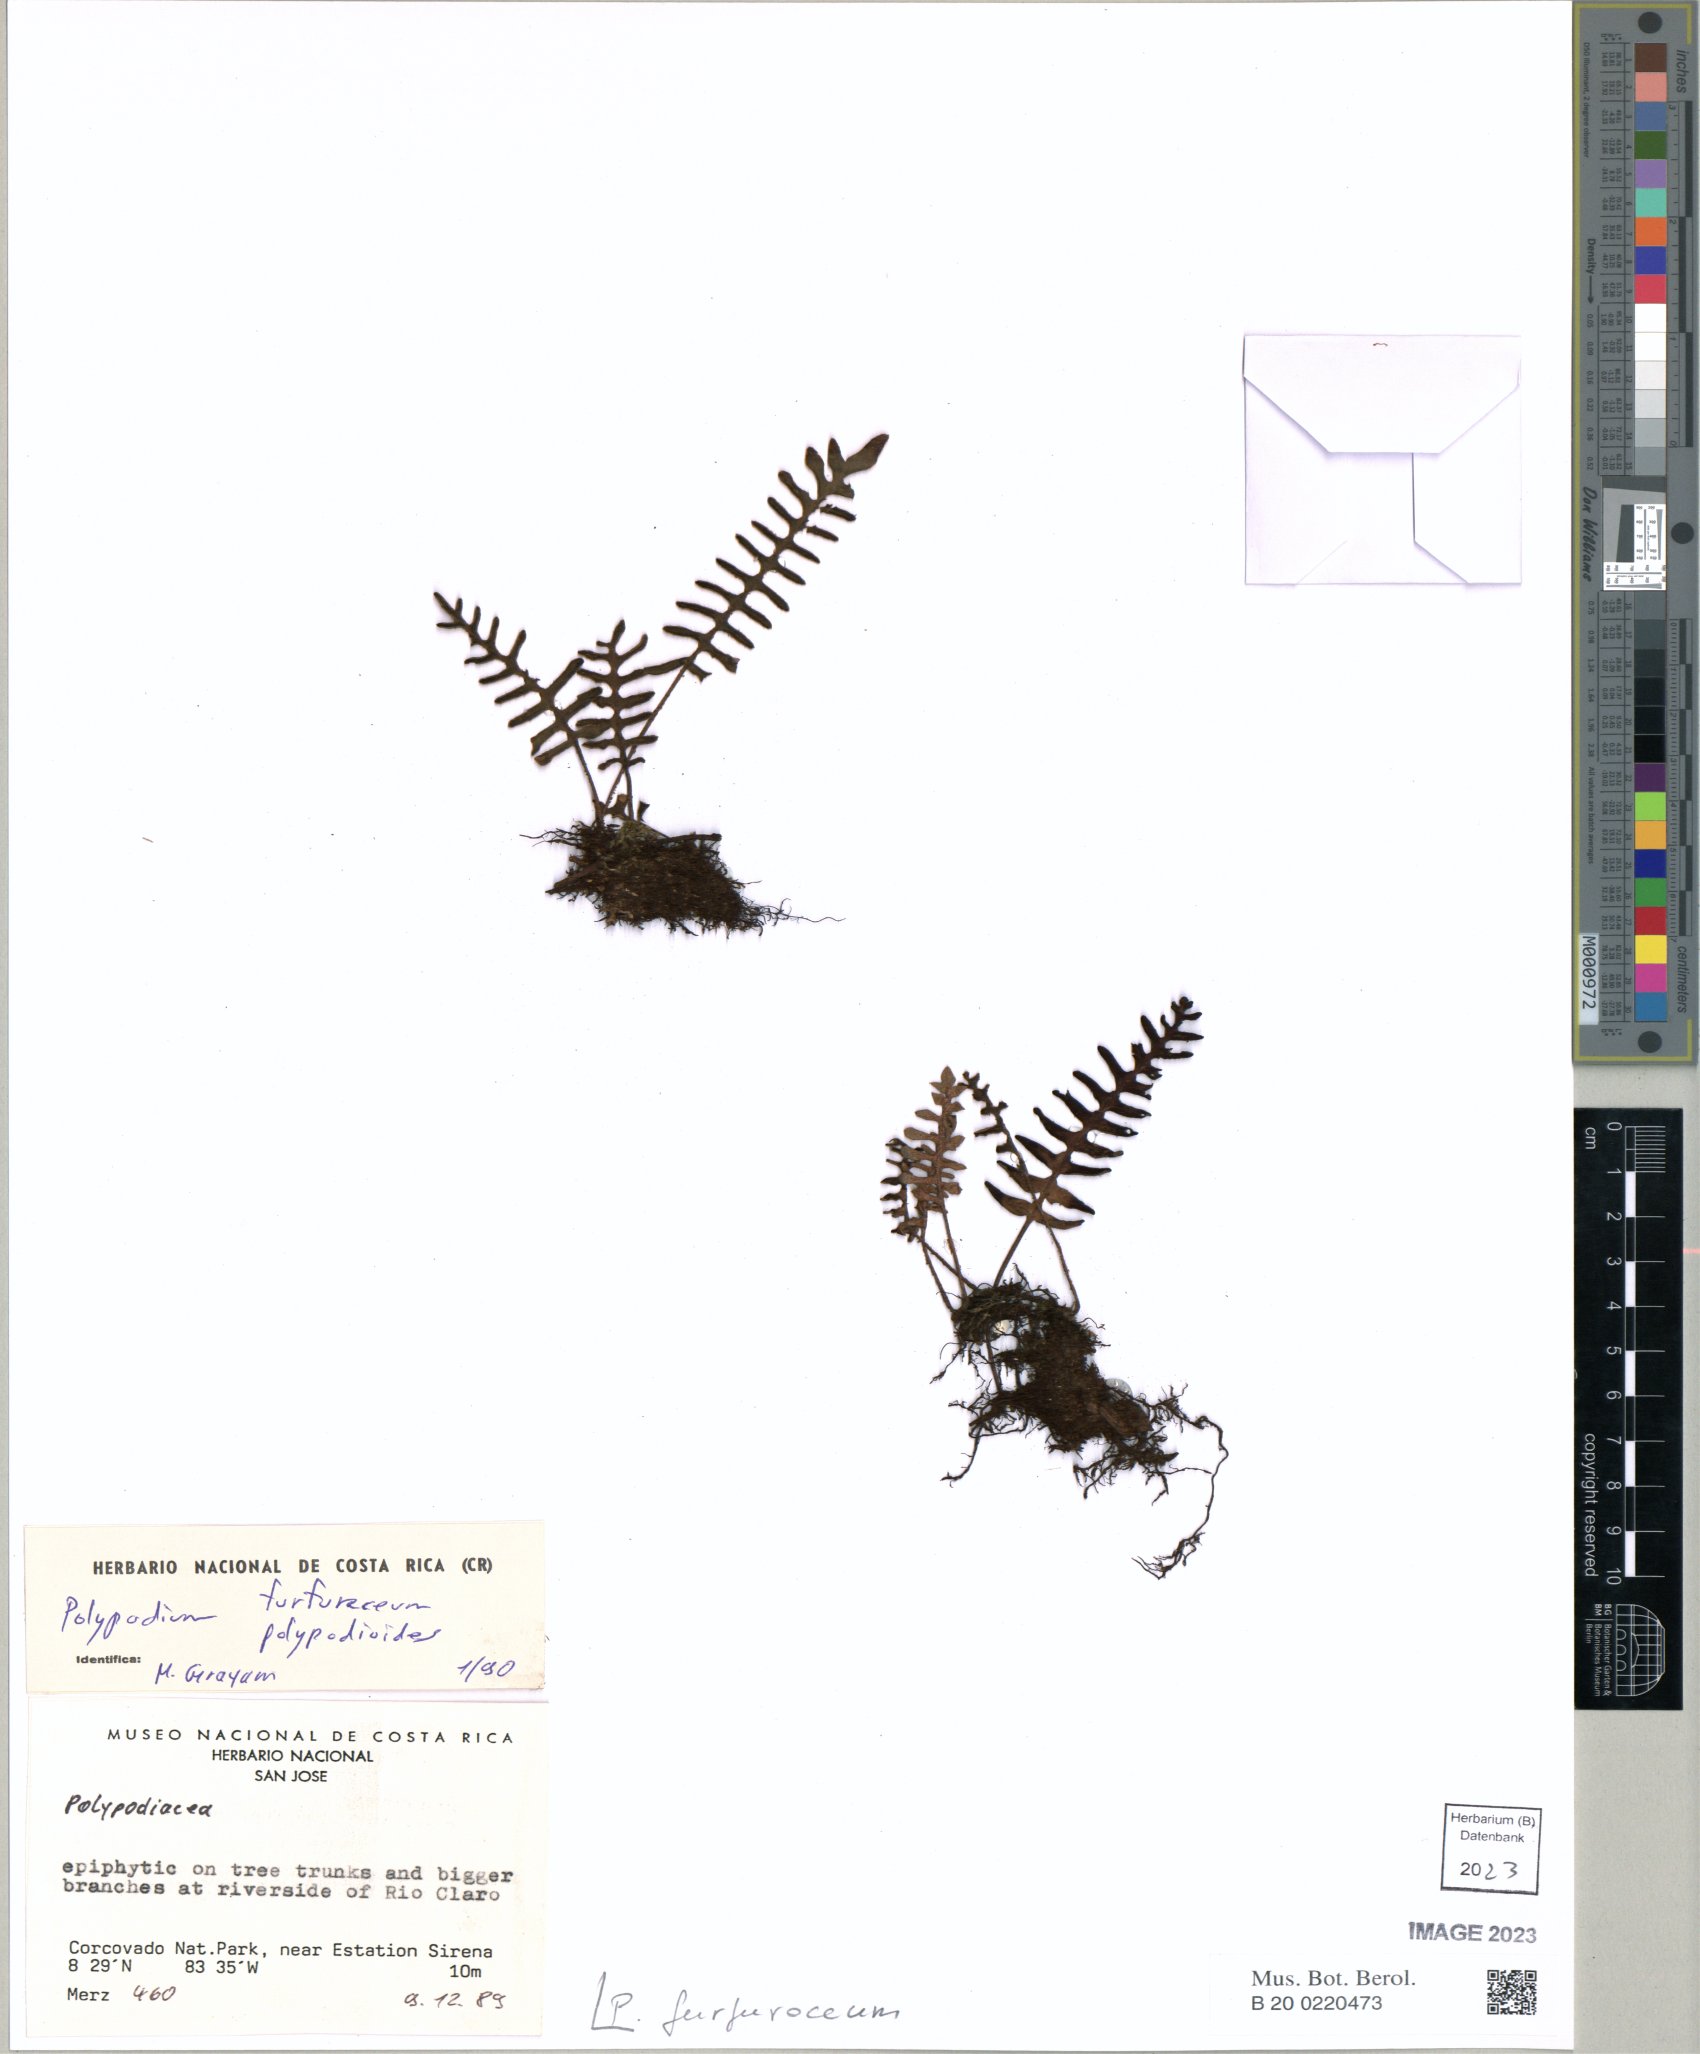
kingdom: Plantae
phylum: Tracheophyta
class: Polypodiopsida
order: Polypodiales
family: Polypodiaceae
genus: Pleopeltis
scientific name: Pleopeltis furfuracea
